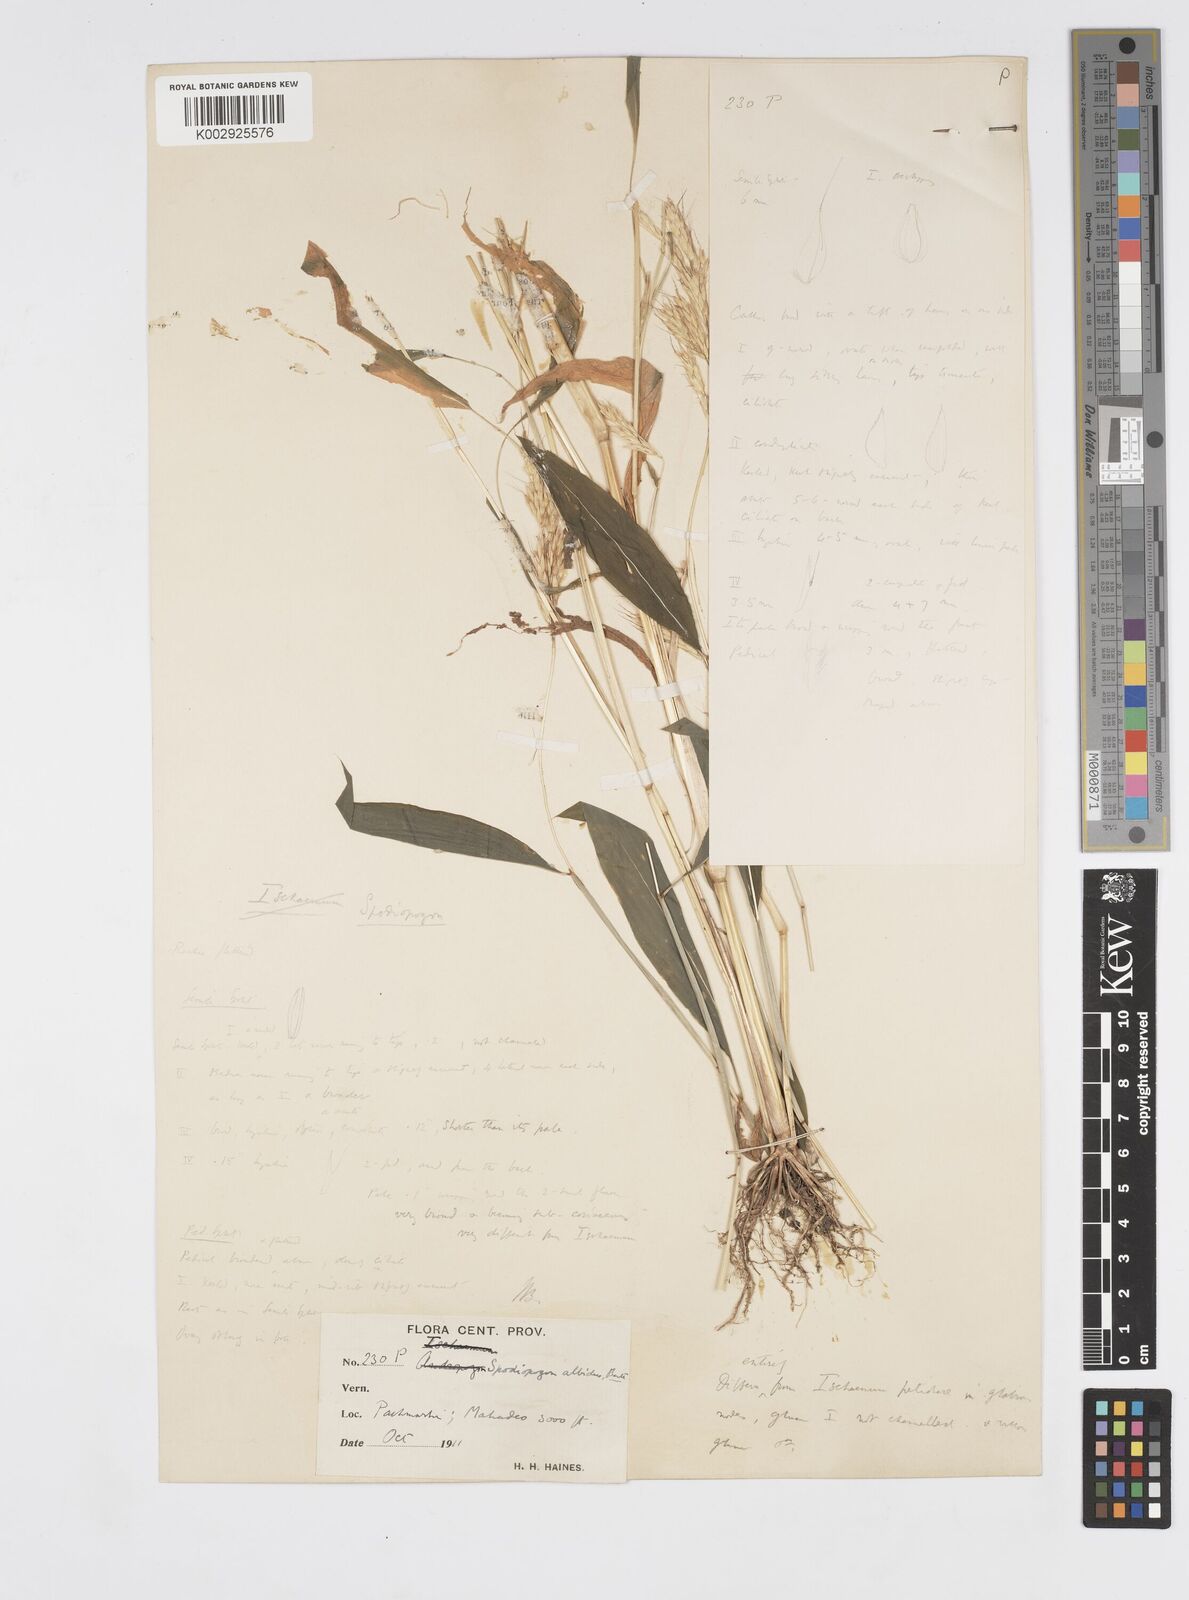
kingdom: Plantae
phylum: Tracheophyta
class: Liliopsida
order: Poales
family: Poaceae
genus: Spodiopogon
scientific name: Spodiopogon rhizophorus
